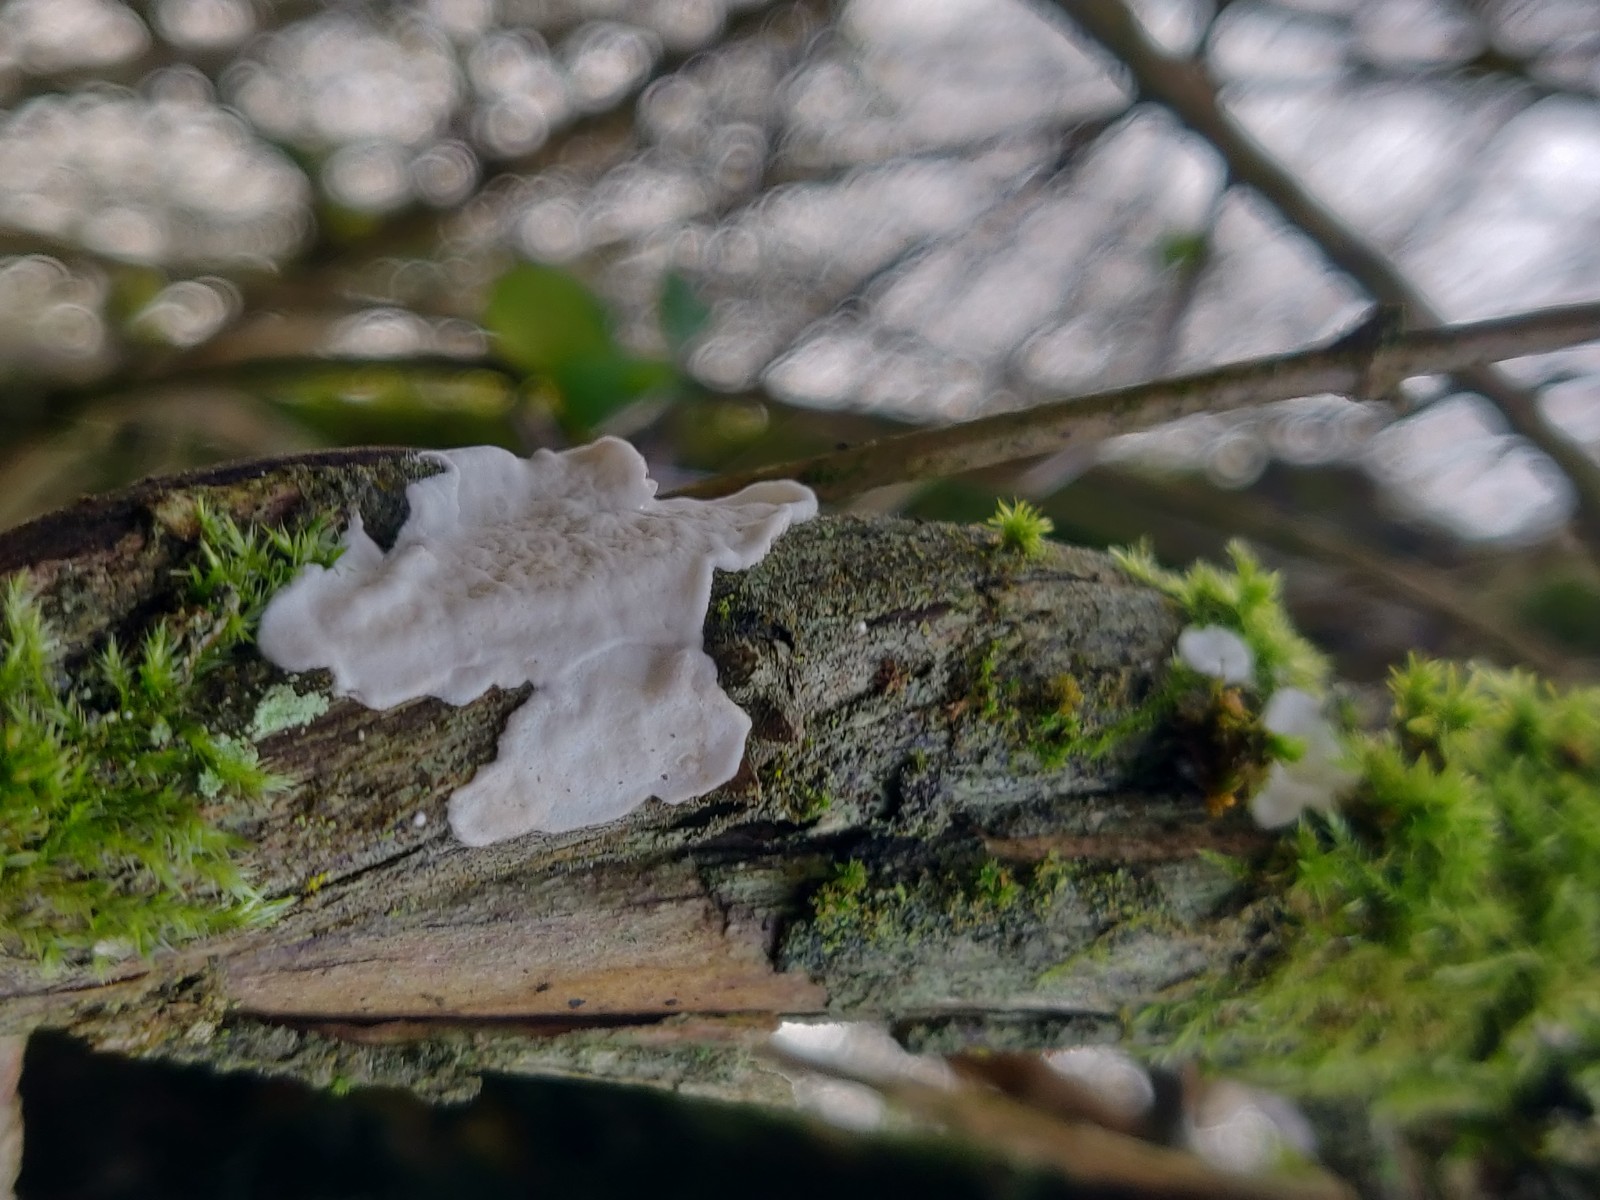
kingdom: Fungi
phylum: Basidiomycota
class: Agaricomycetes
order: Polyporales
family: Irpicaceae
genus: Byssomerulius
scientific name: Byssomerulius corium
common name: læder-åresvamp
